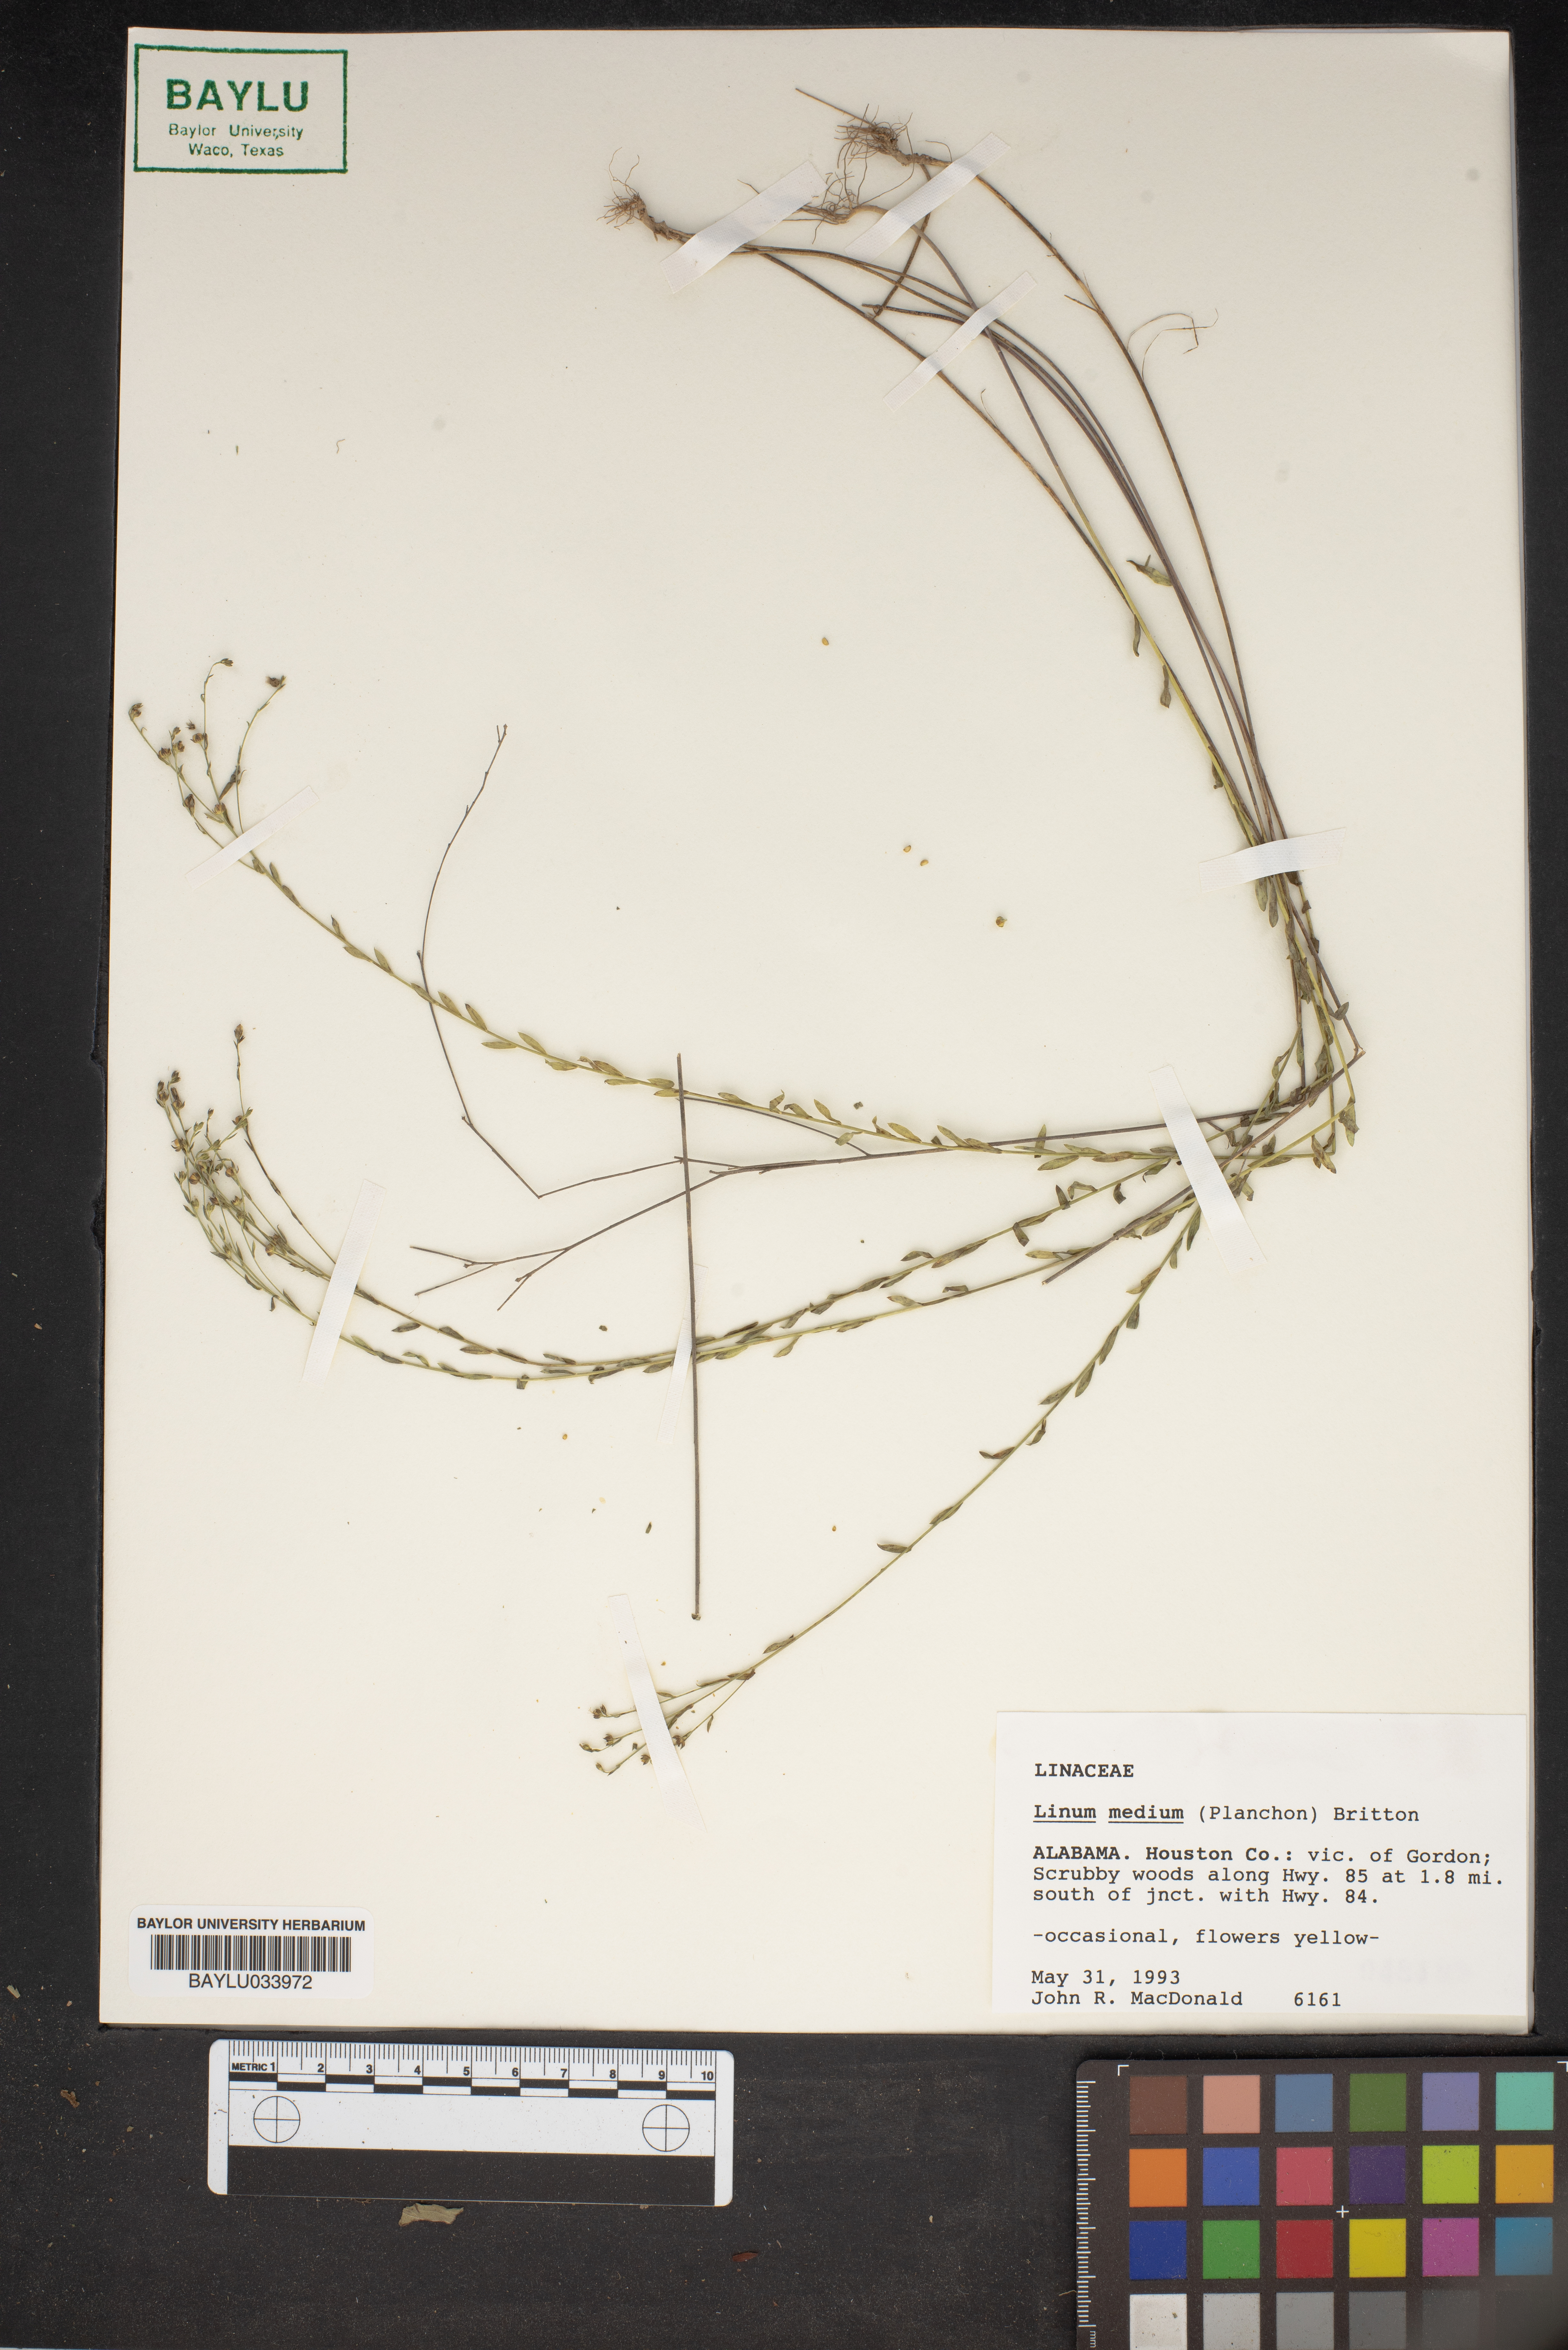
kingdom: Plantae
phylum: Tracheophyta
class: Magnoliopsida
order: Malpighiales
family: Linaceae
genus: Linum
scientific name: Linum medium
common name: Stiff yellow flax
